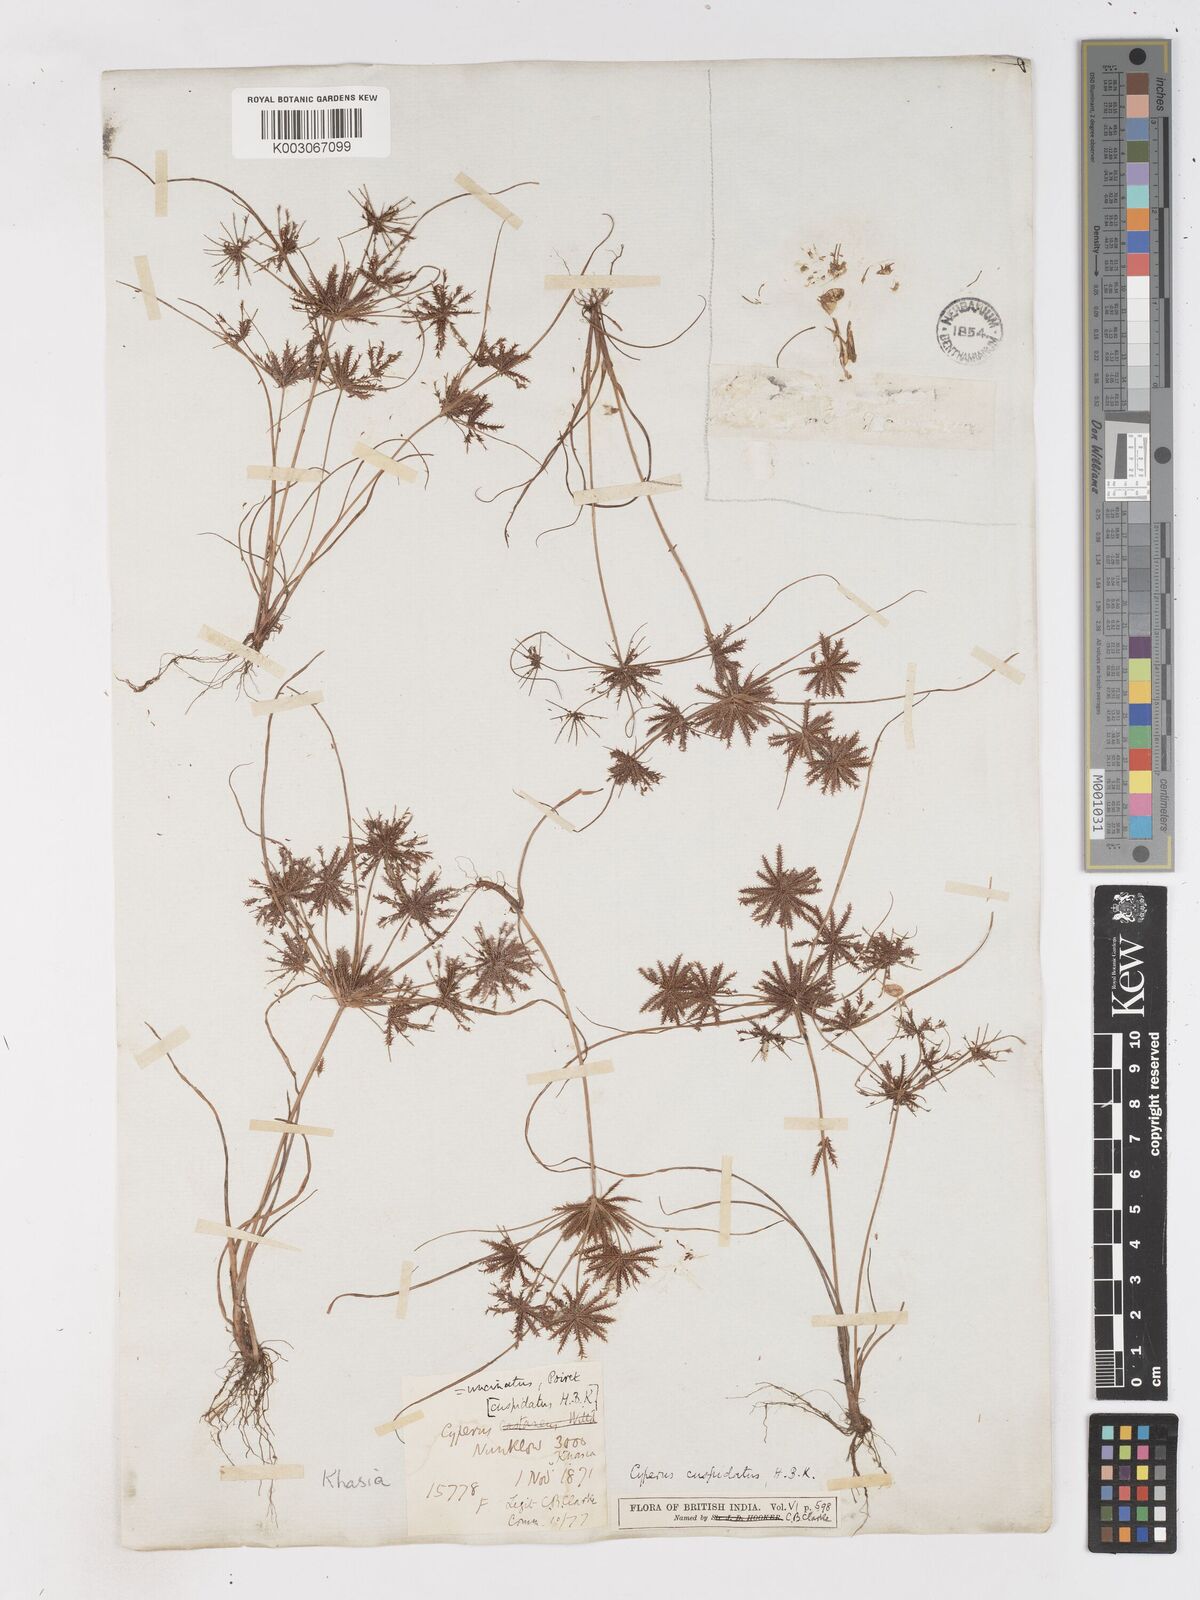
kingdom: Plantae
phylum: Tracheophyta
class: Liliopsida
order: Poales
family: Cyperaceae
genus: Cyperus
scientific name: Cyperus cuspidatus
